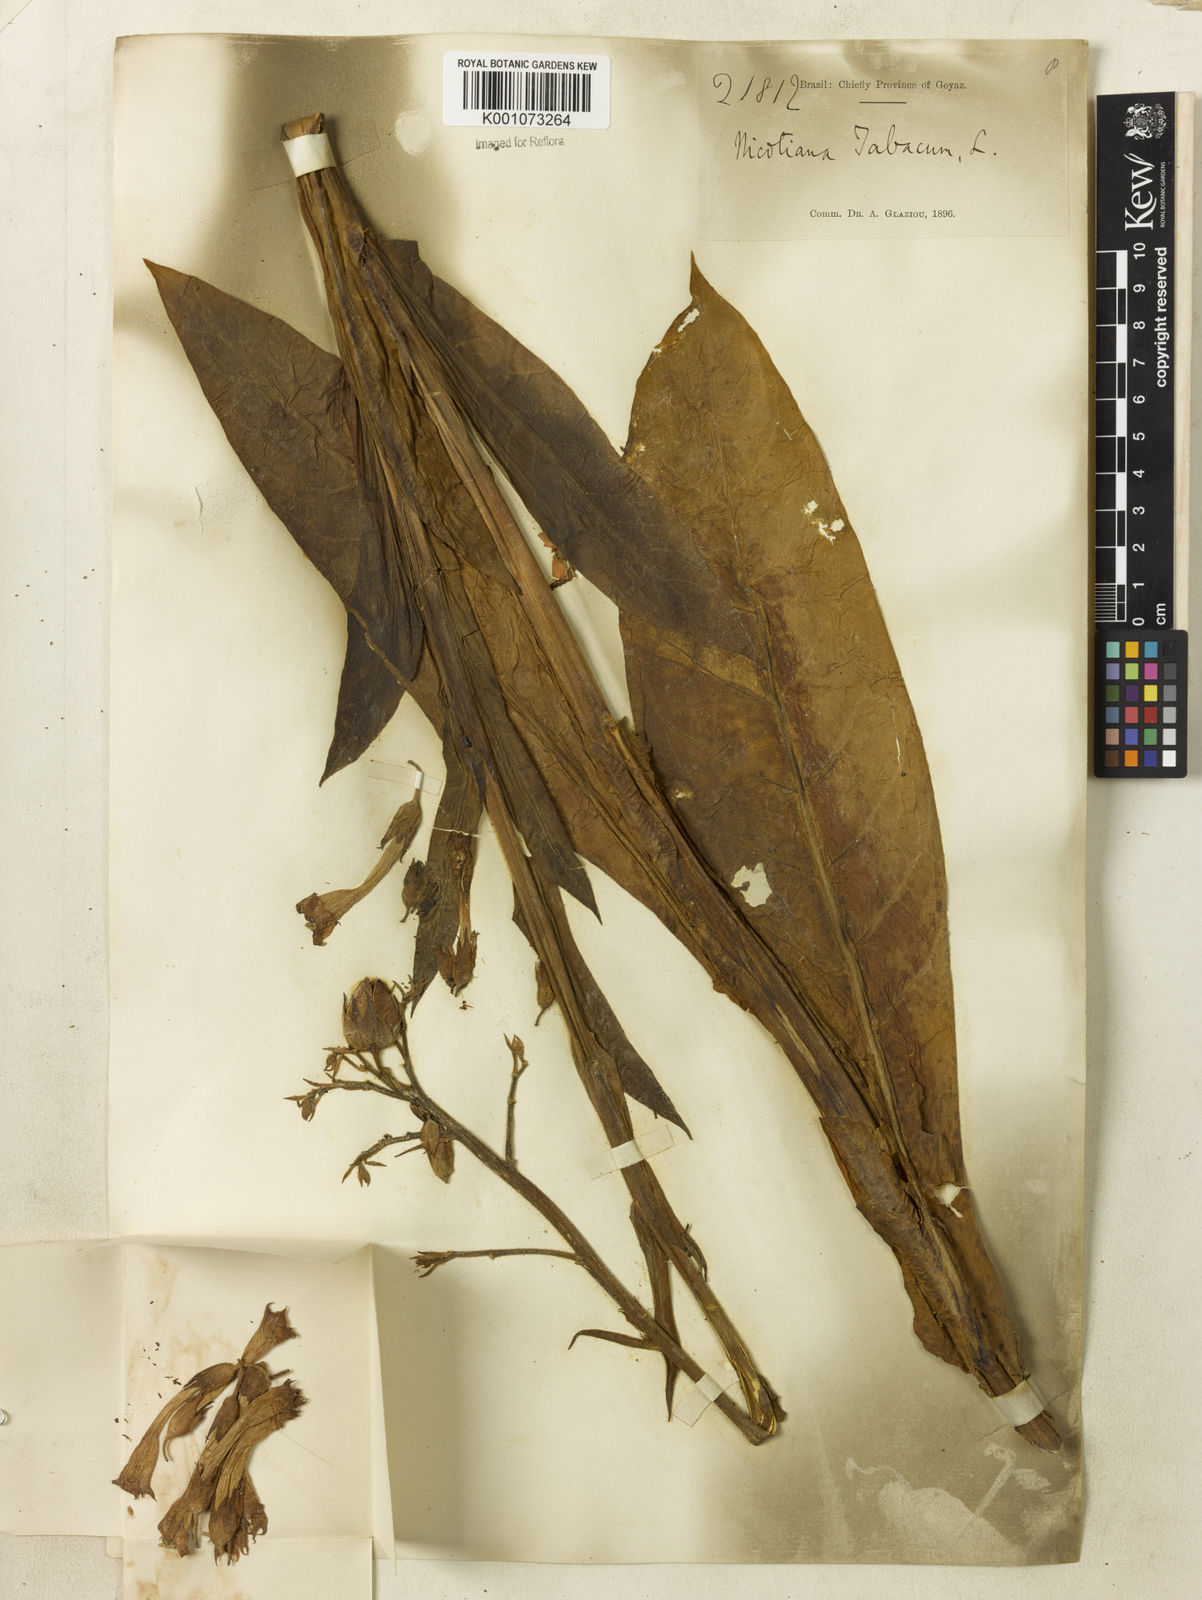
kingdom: Plantae
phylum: Tracheophyta
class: Magnoliopsida
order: Solanales
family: Solanaceae
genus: Nicotiana
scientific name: Nicotiana tabacum
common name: Tobacco
